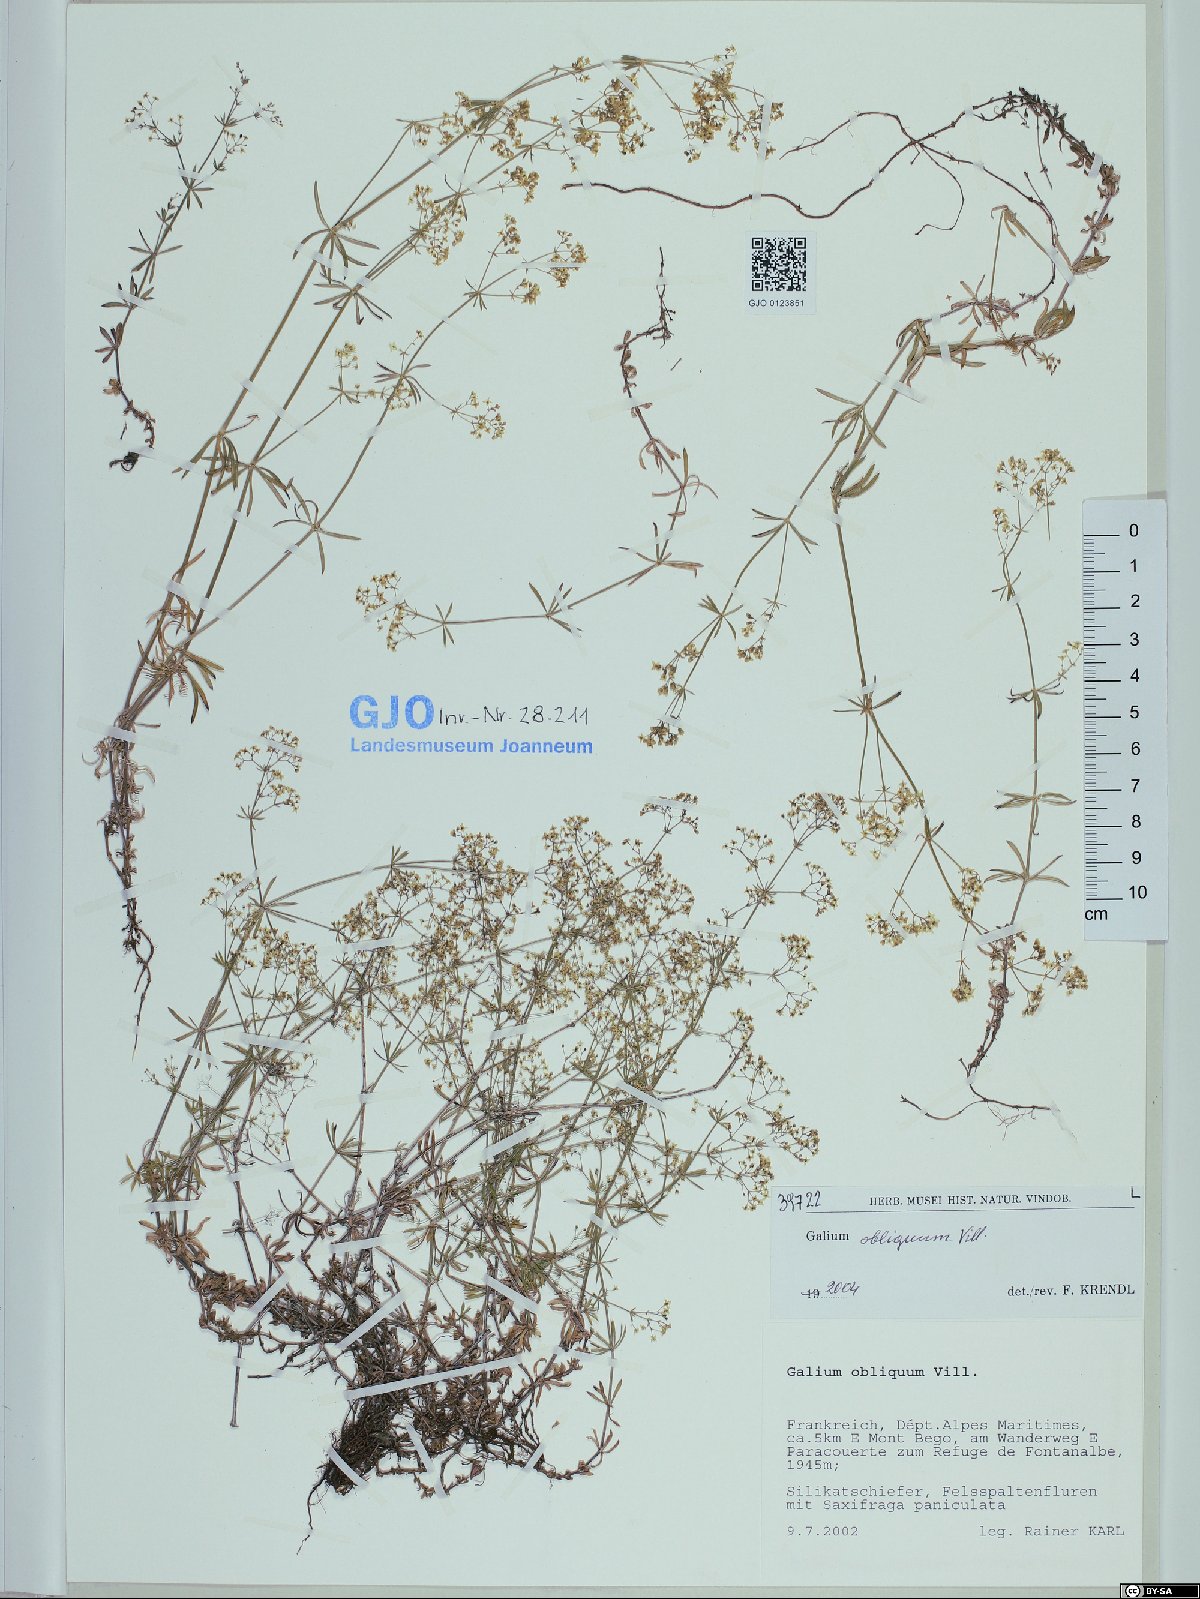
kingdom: Plantae
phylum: Tracheophyta
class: Magnoliopsida
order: Gentianales
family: Rubiaceae
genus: Galium
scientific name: Galium obliquum
